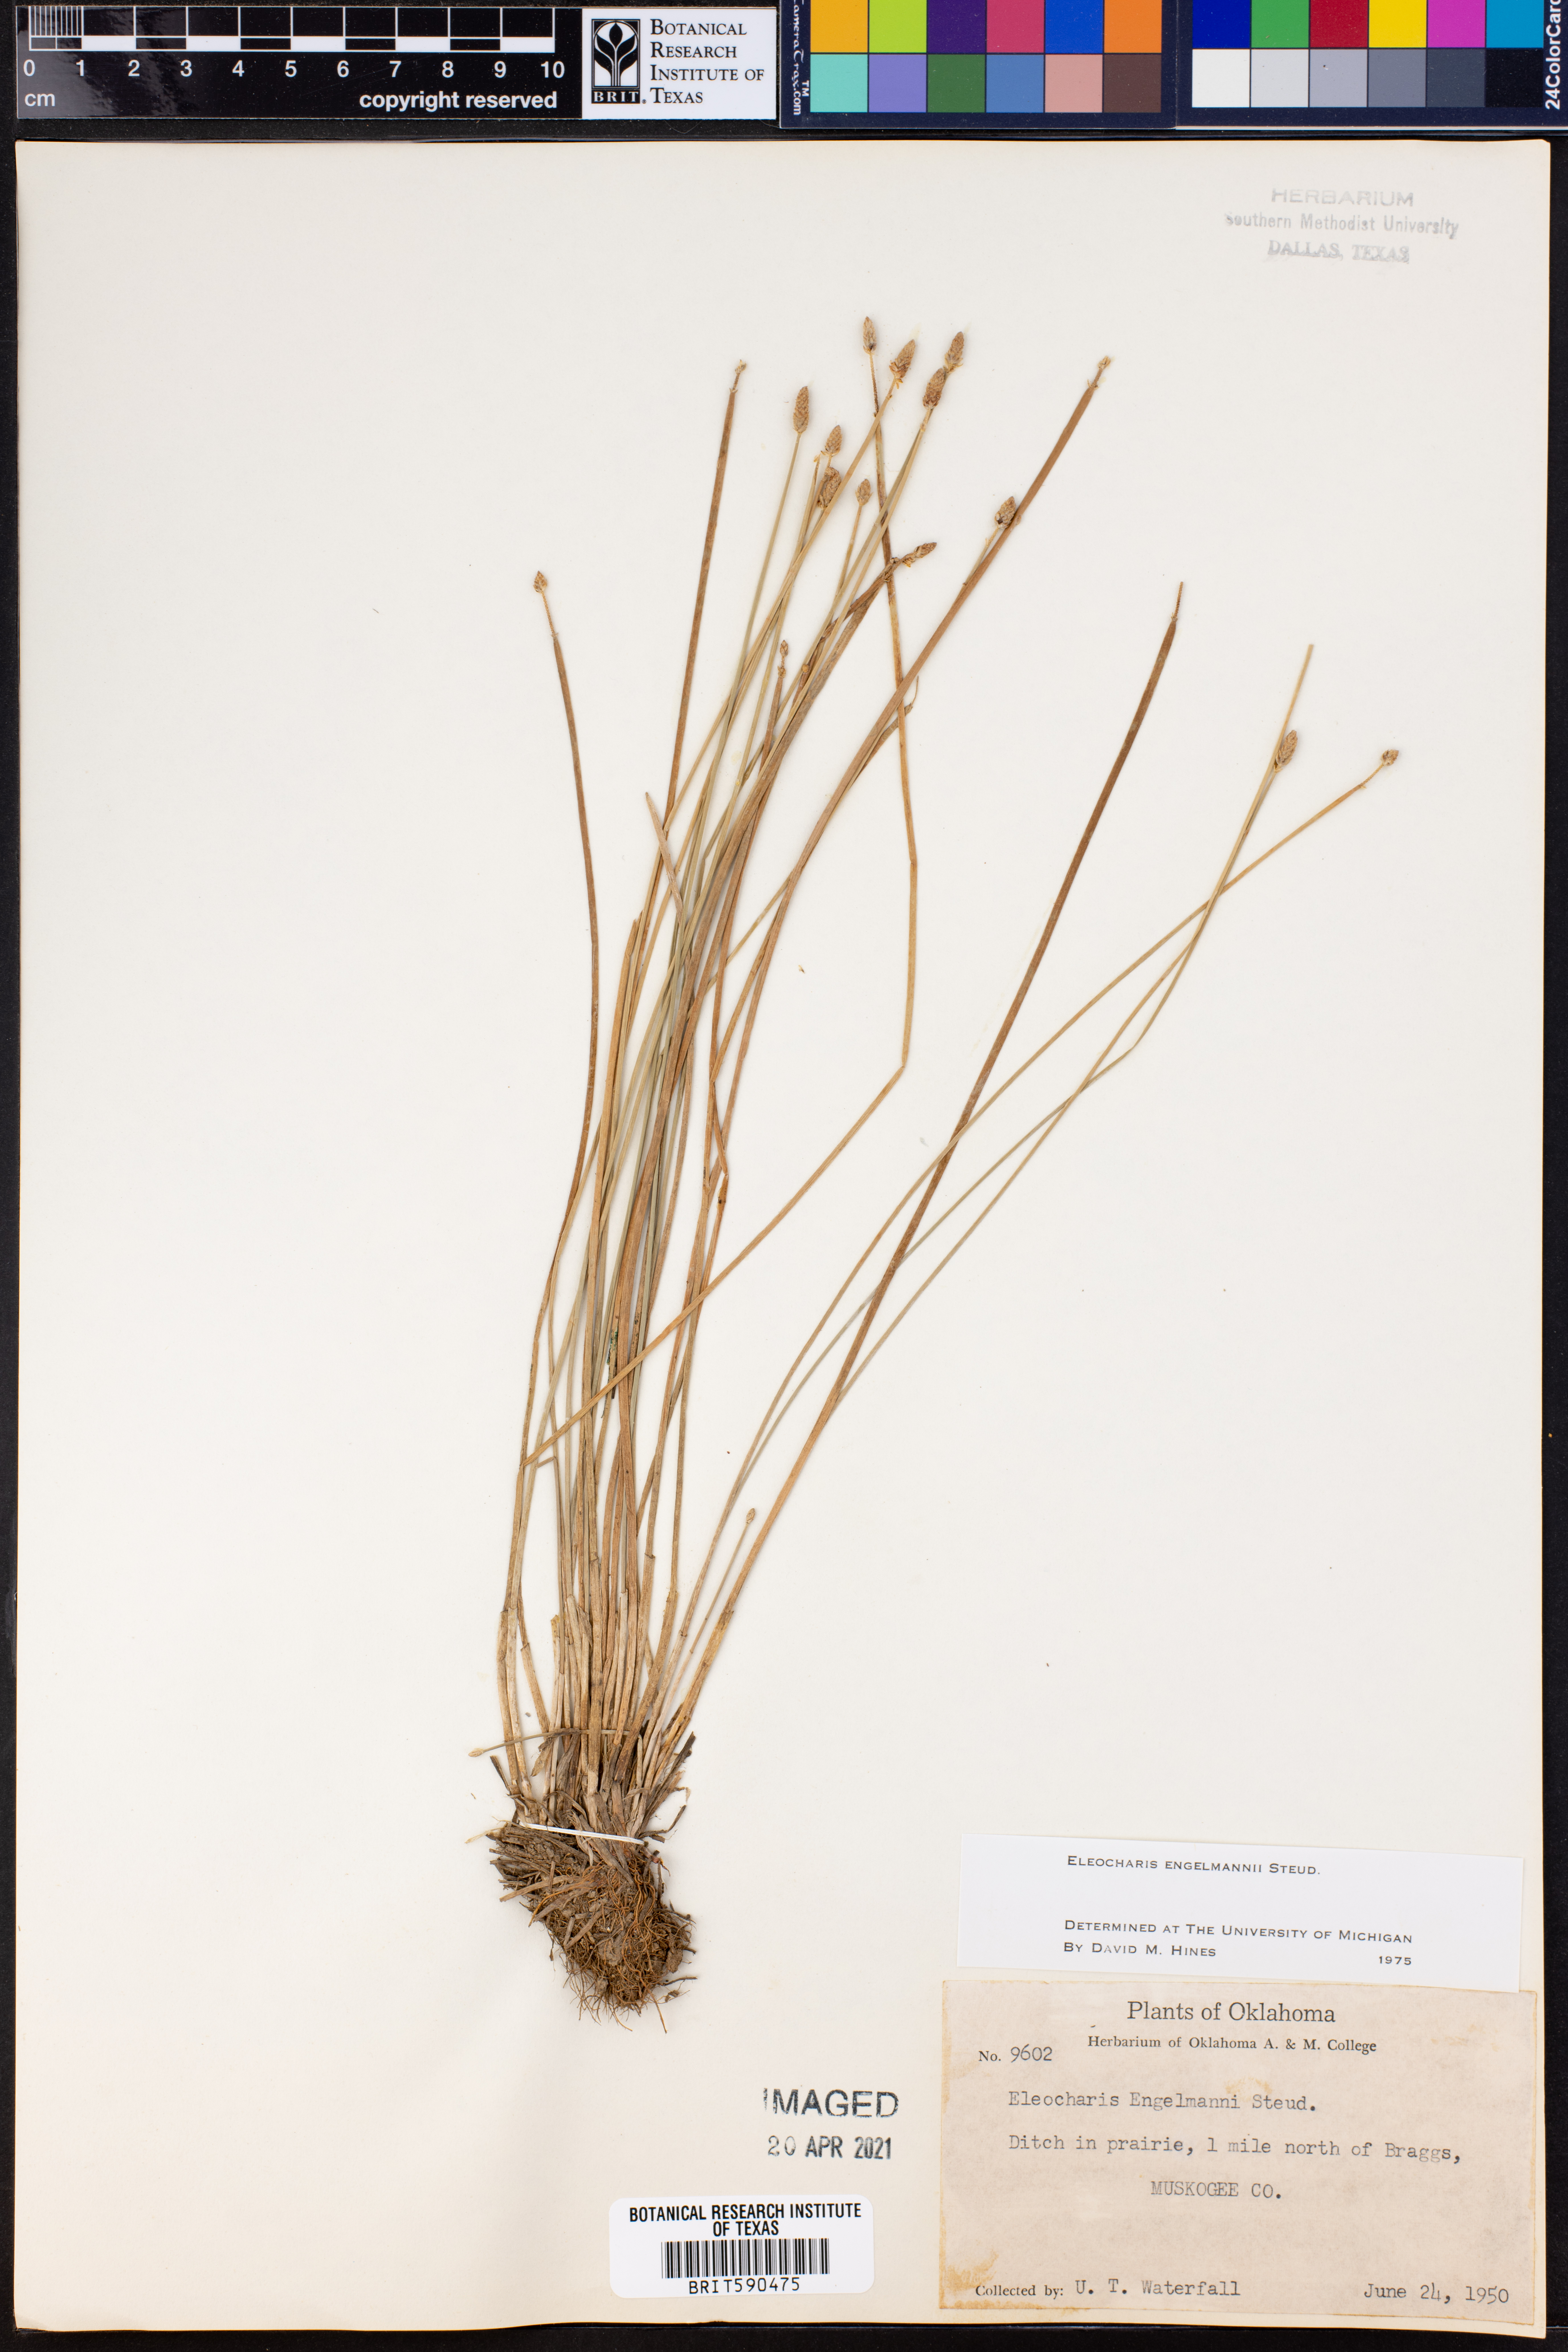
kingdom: Plantae
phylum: Tracheophyta
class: Liliopsida
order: Poales
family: Cyperaceae
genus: Eleocharis
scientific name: Eleocharis engelmannii
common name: Engelmann's spikerush
